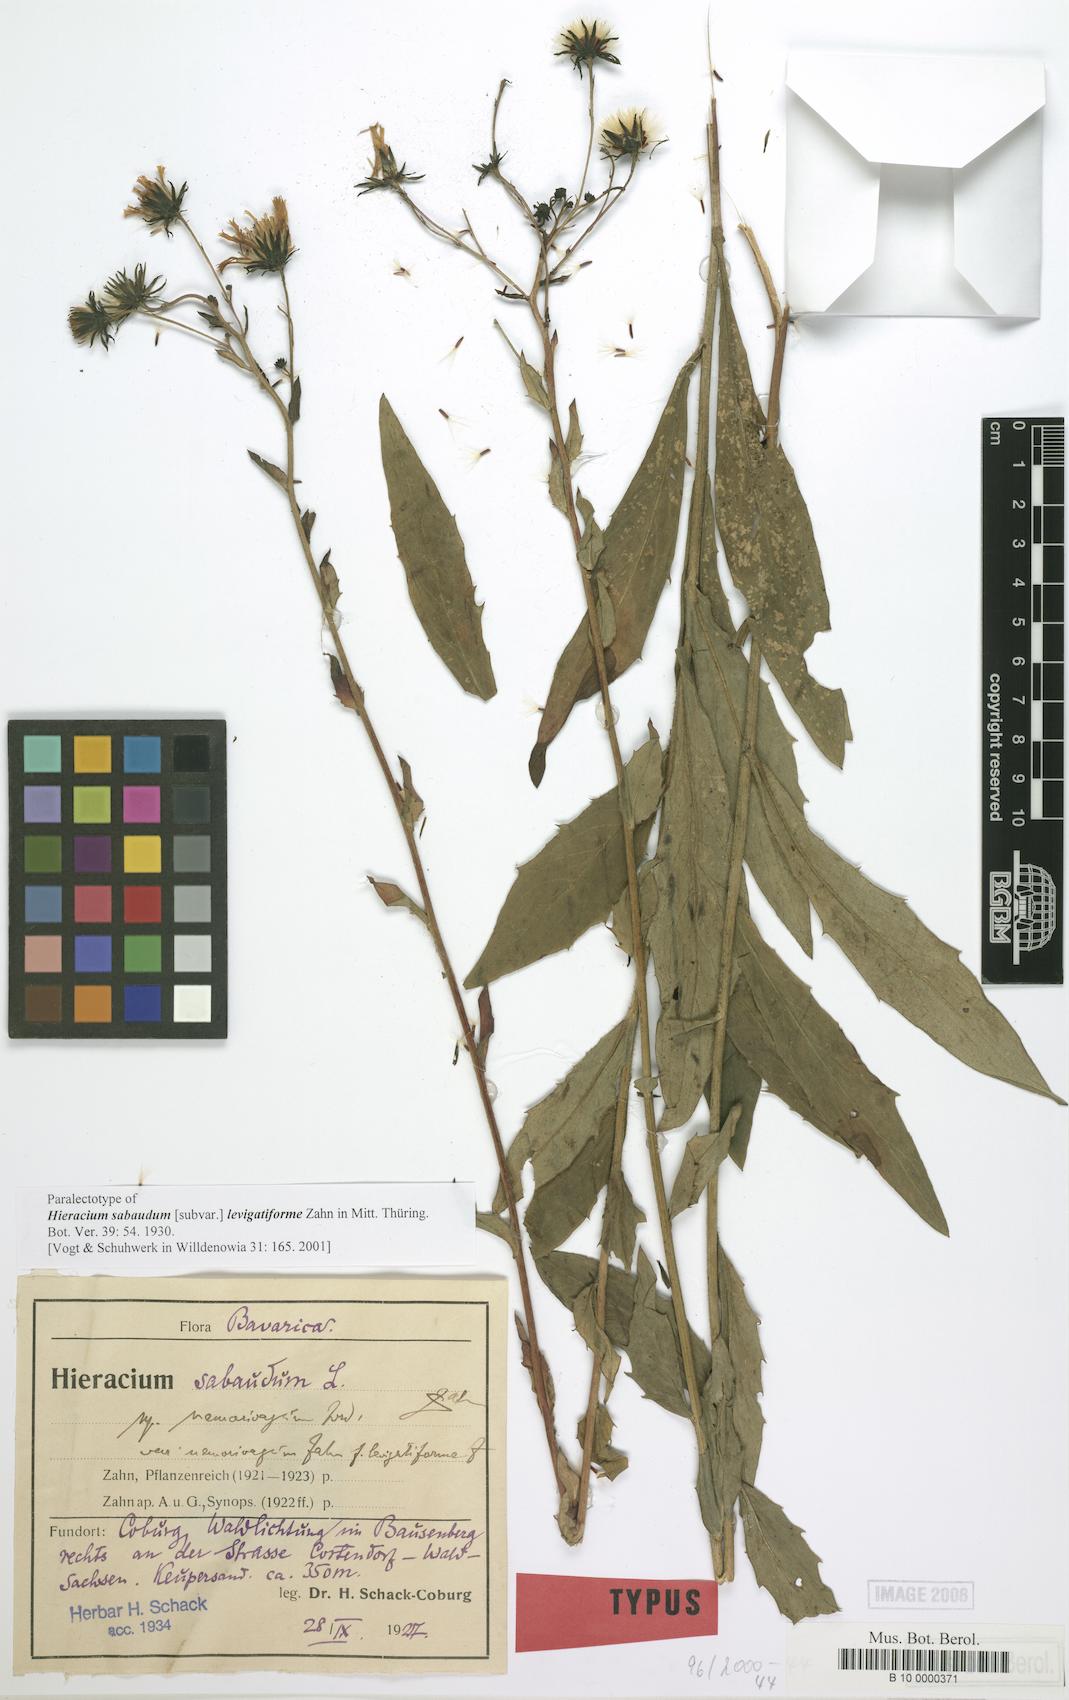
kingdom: Plantae
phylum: Tracheophyta
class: Magnoliopsida
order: Asterales
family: Asteraceae
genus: Hieracium
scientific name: Hieracium sabaudum
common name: New england hawkweed
